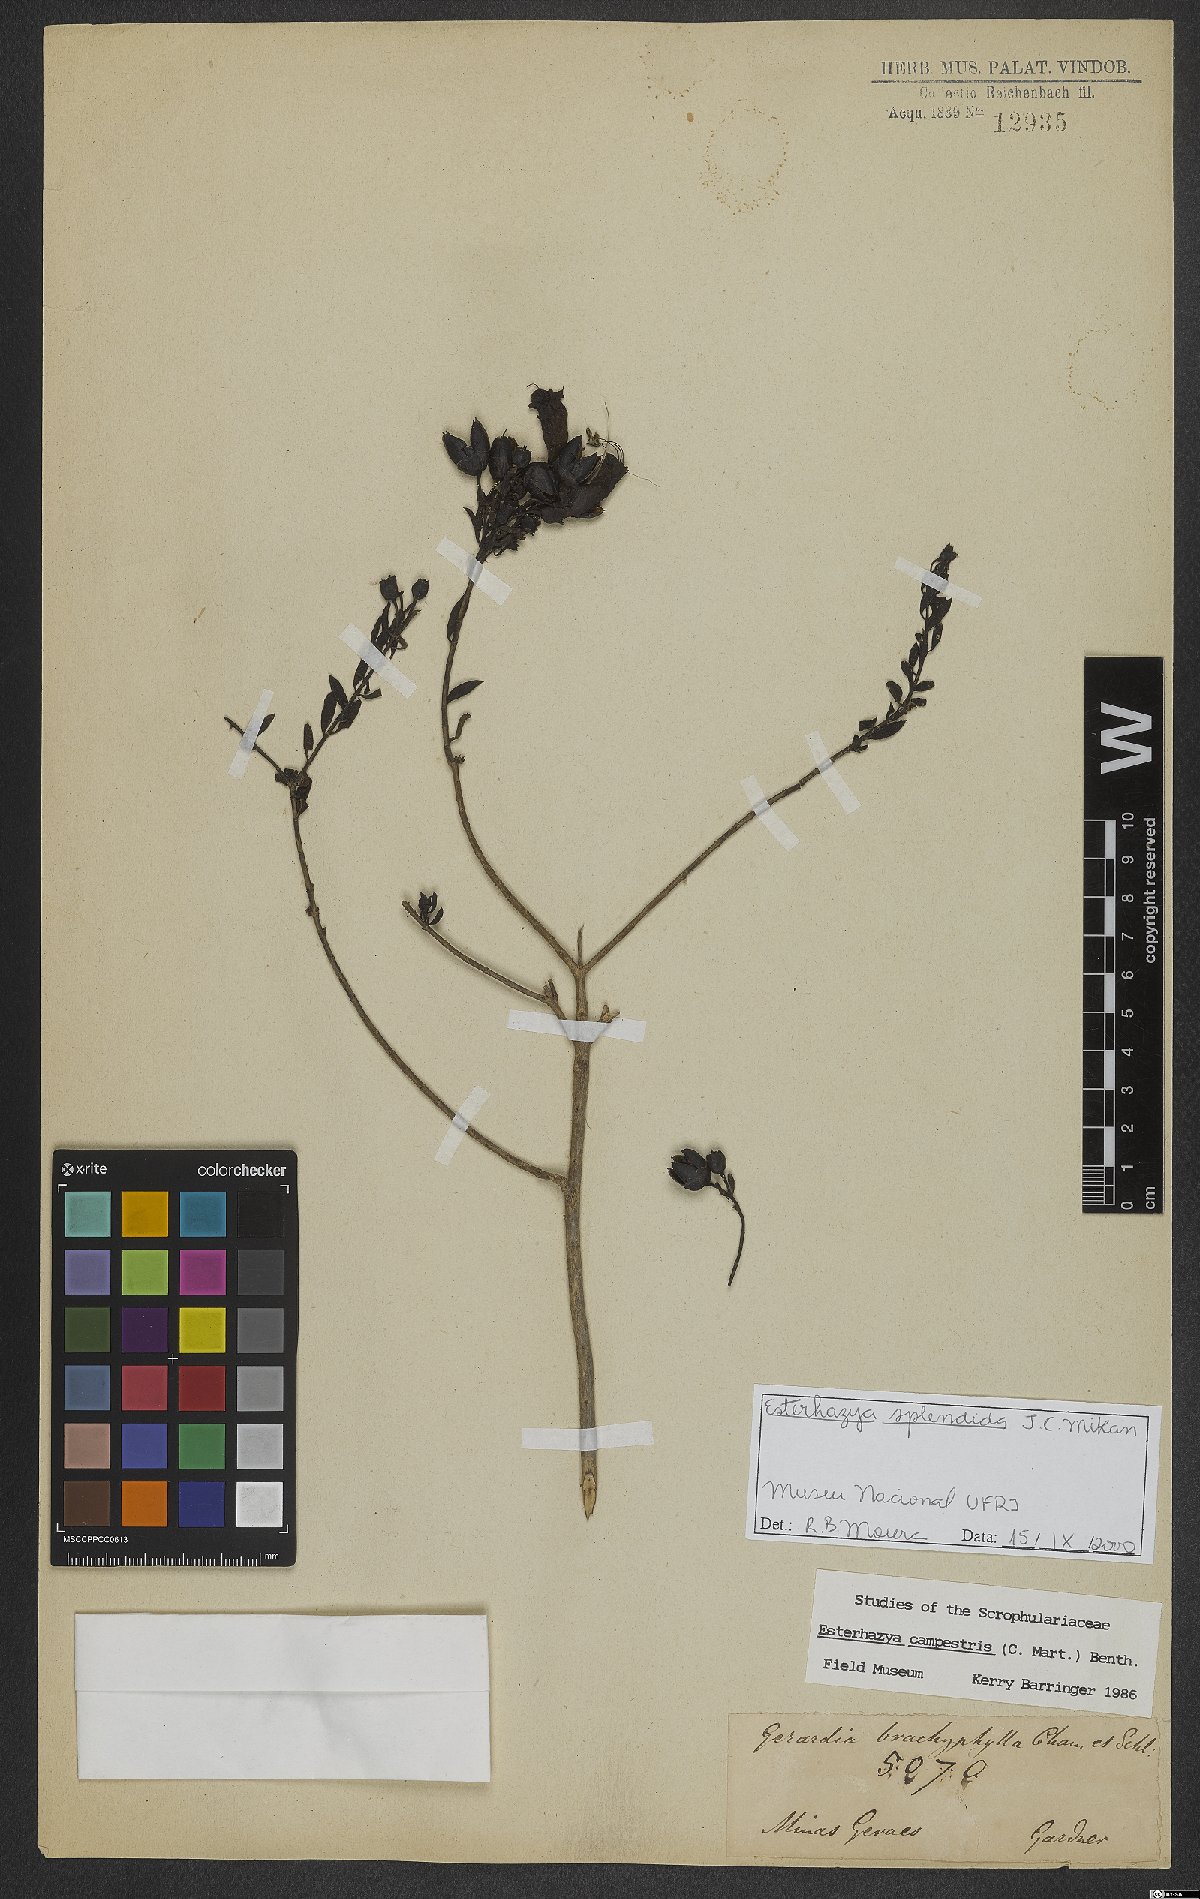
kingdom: Plantae
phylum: Tracheophyta
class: Magnoliopsida
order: Lamiales
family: Orobanchaceae
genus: Esterhazya
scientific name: Esterhazya splendida
